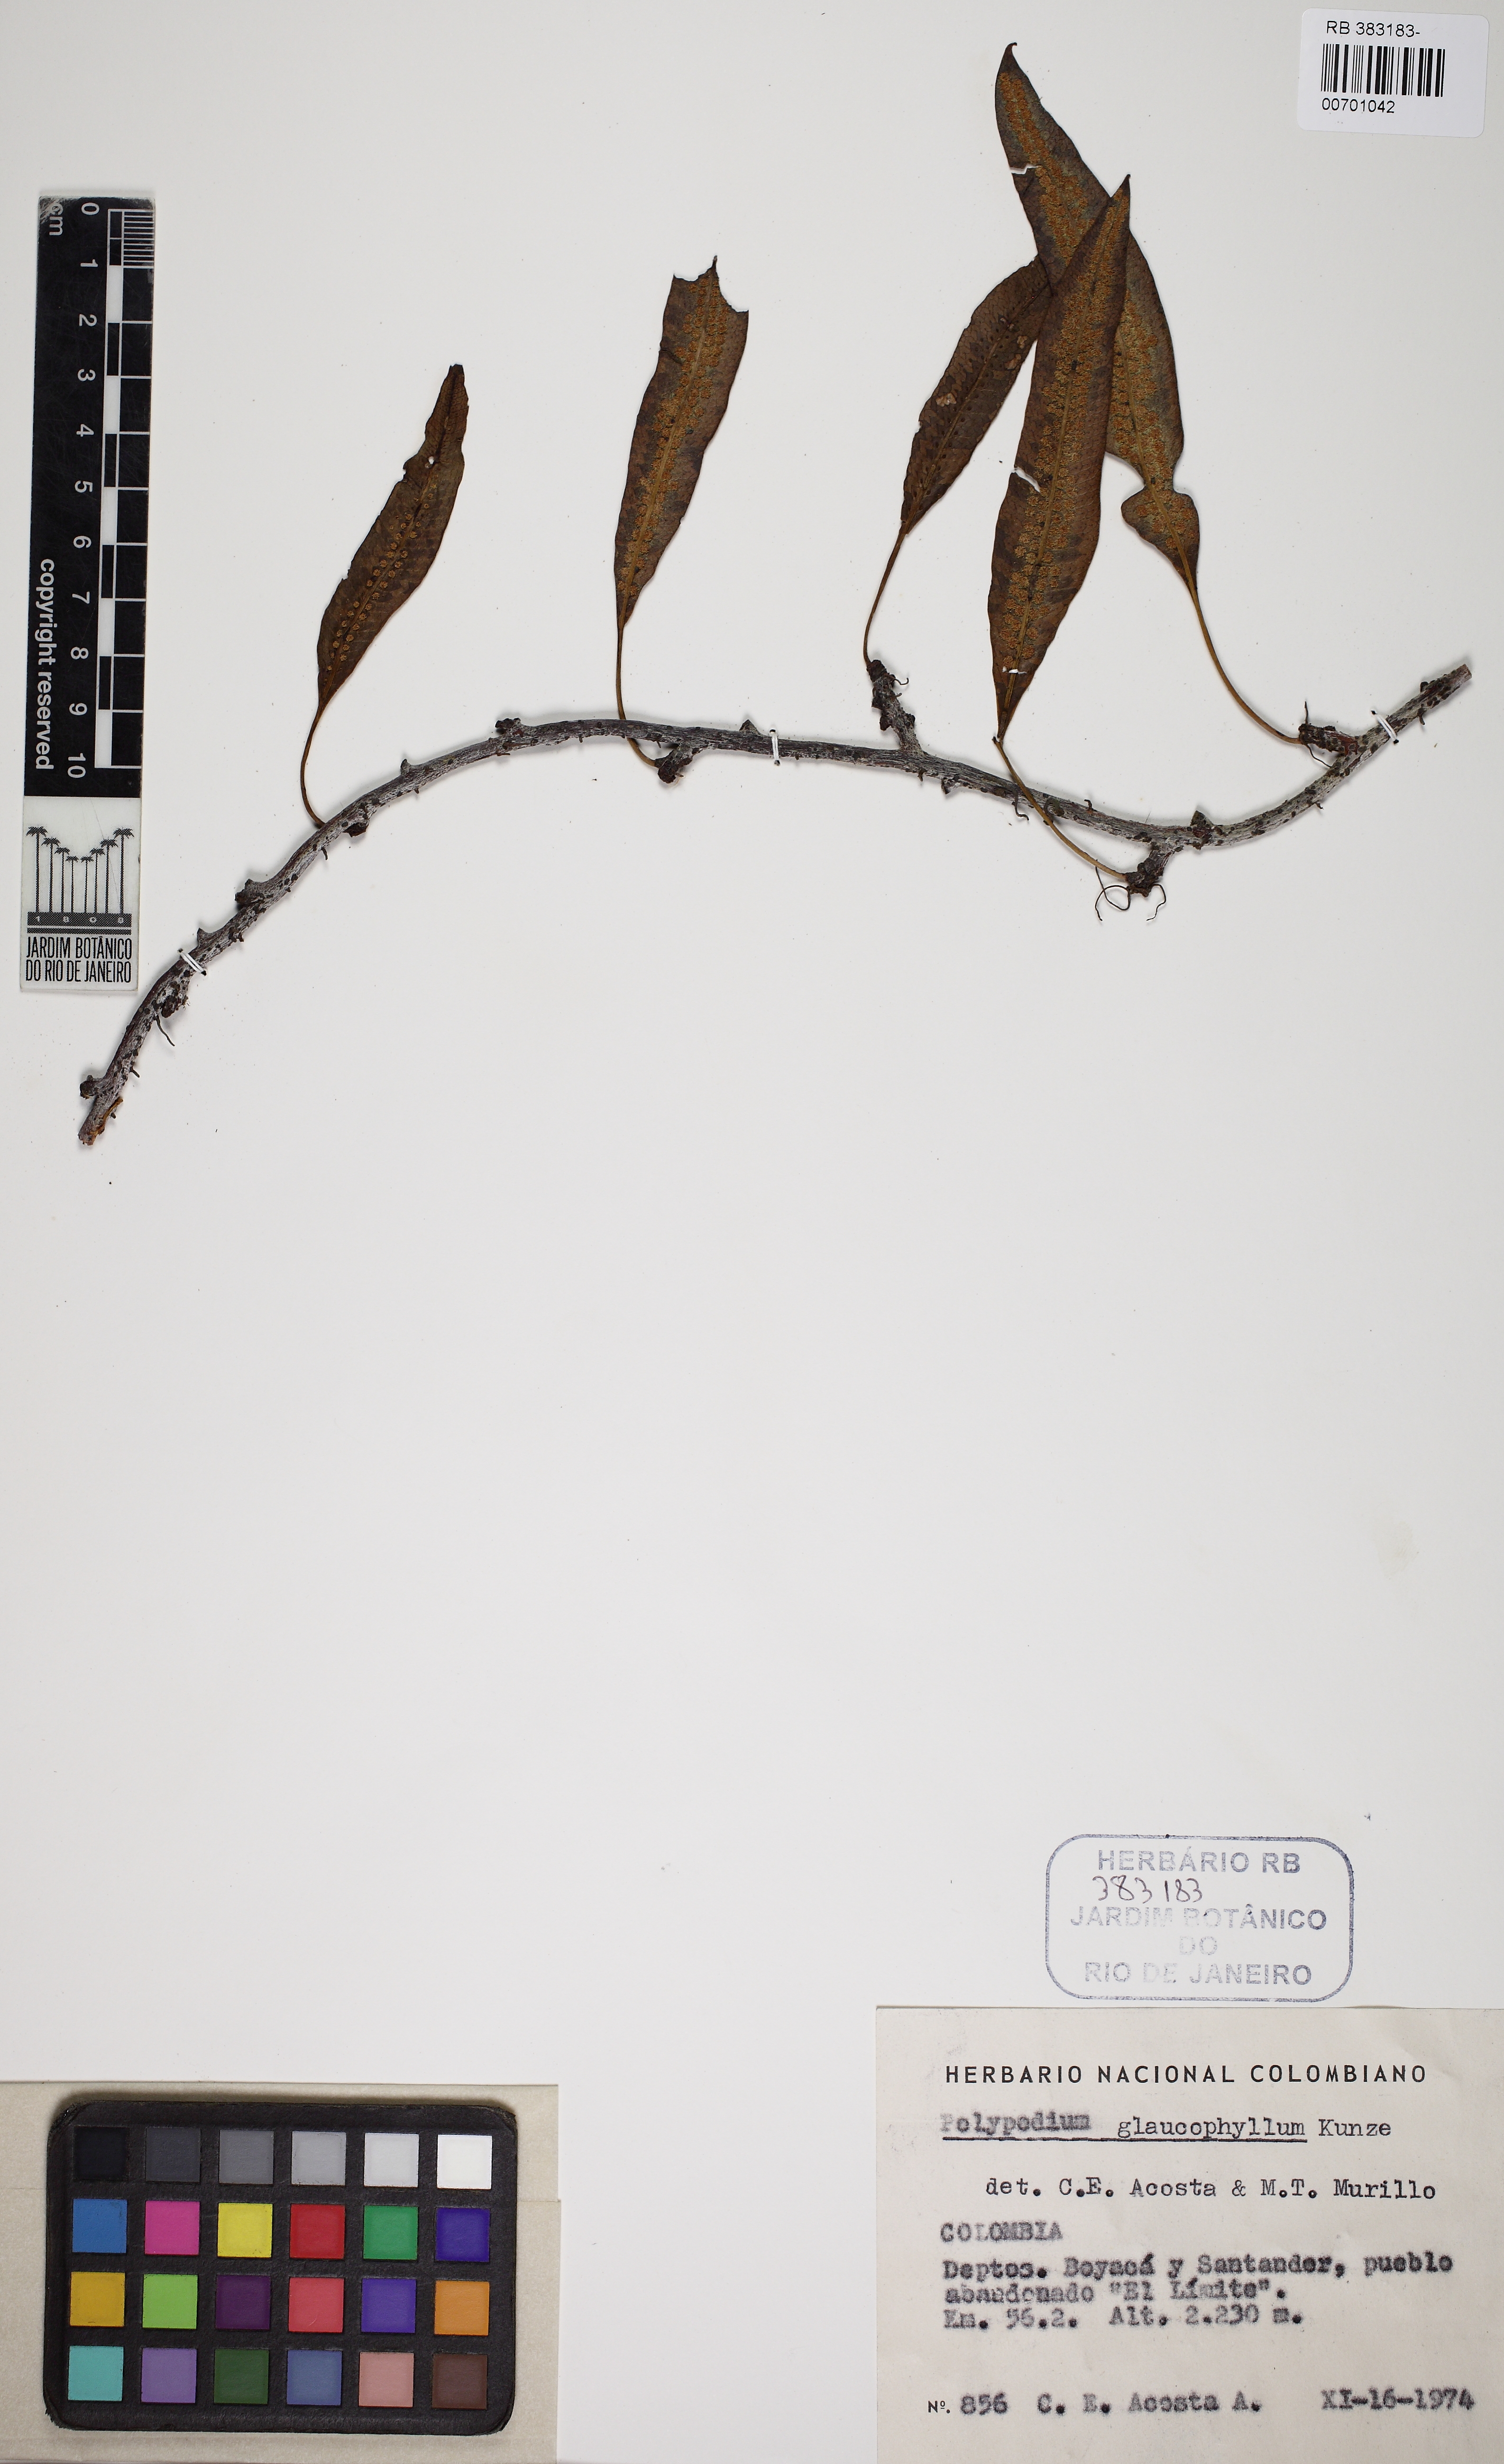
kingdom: Plantae
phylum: Tracheophyta
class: Polypodiopsida
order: Polypodiales
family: Polypodiaceae
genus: Serpocaulon
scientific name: Serpocaulon levigatum
